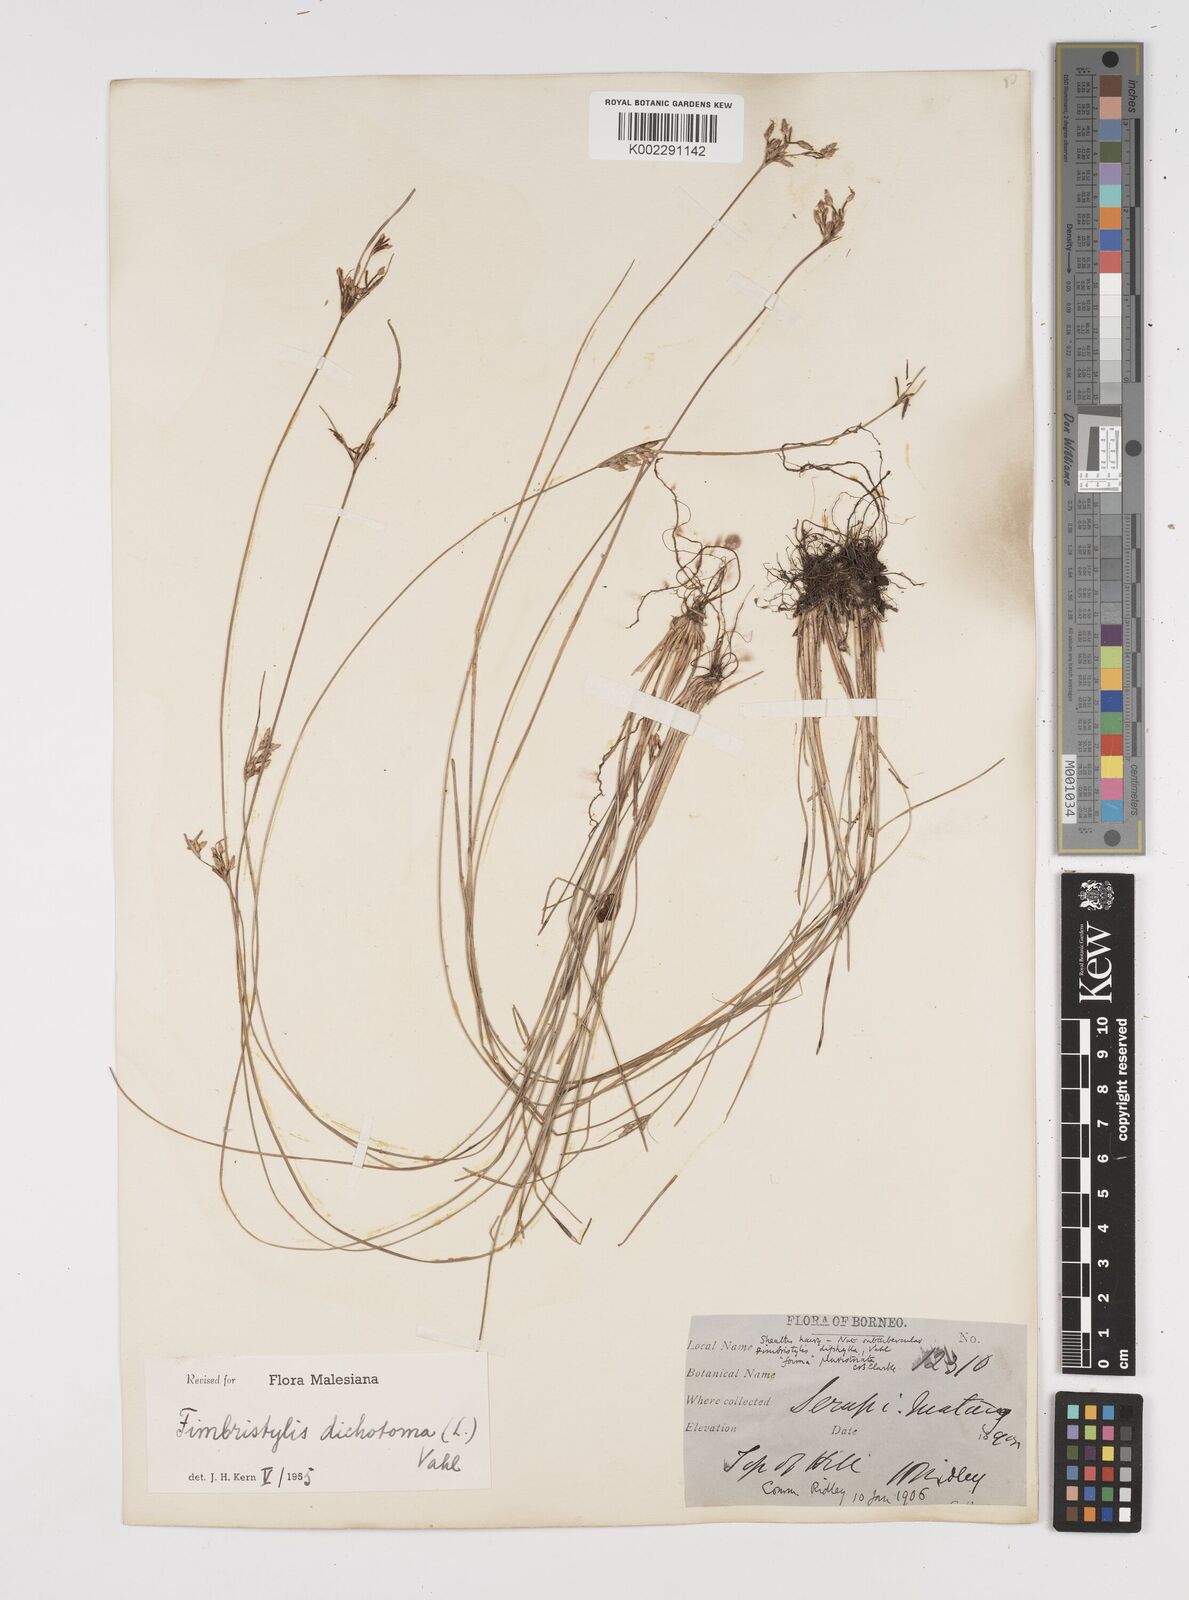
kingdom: Plantae
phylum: Tracheophyta
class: Liliopsida
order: Poales
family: Cyperaceae
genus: Fimbristylis
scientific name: Fimbristylis dichotoma
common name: Forked fimbry
